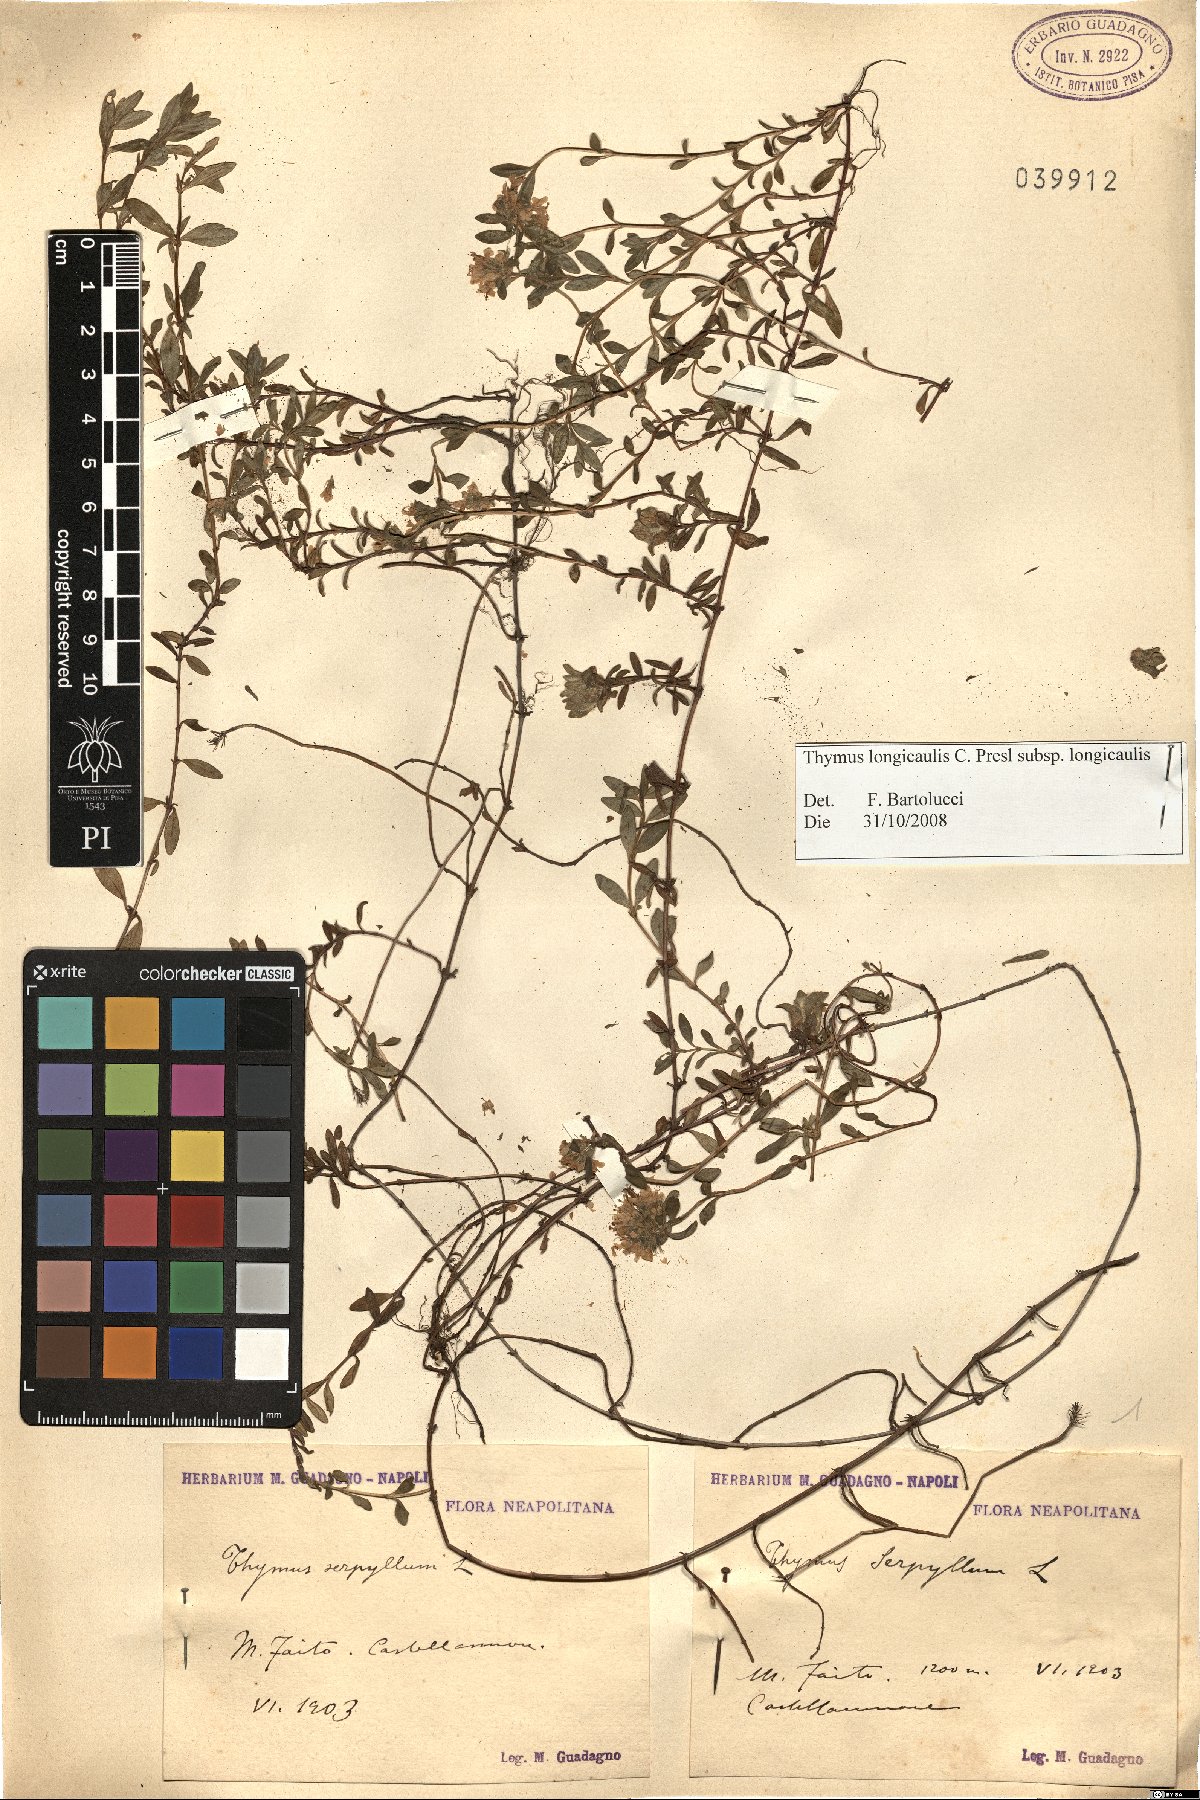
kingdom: Plantae
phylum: Tracheophyta
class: Magnoliopsida
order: Lamiales
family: Lamiaceae
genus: Thymus
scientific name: Thymus longicaulis
